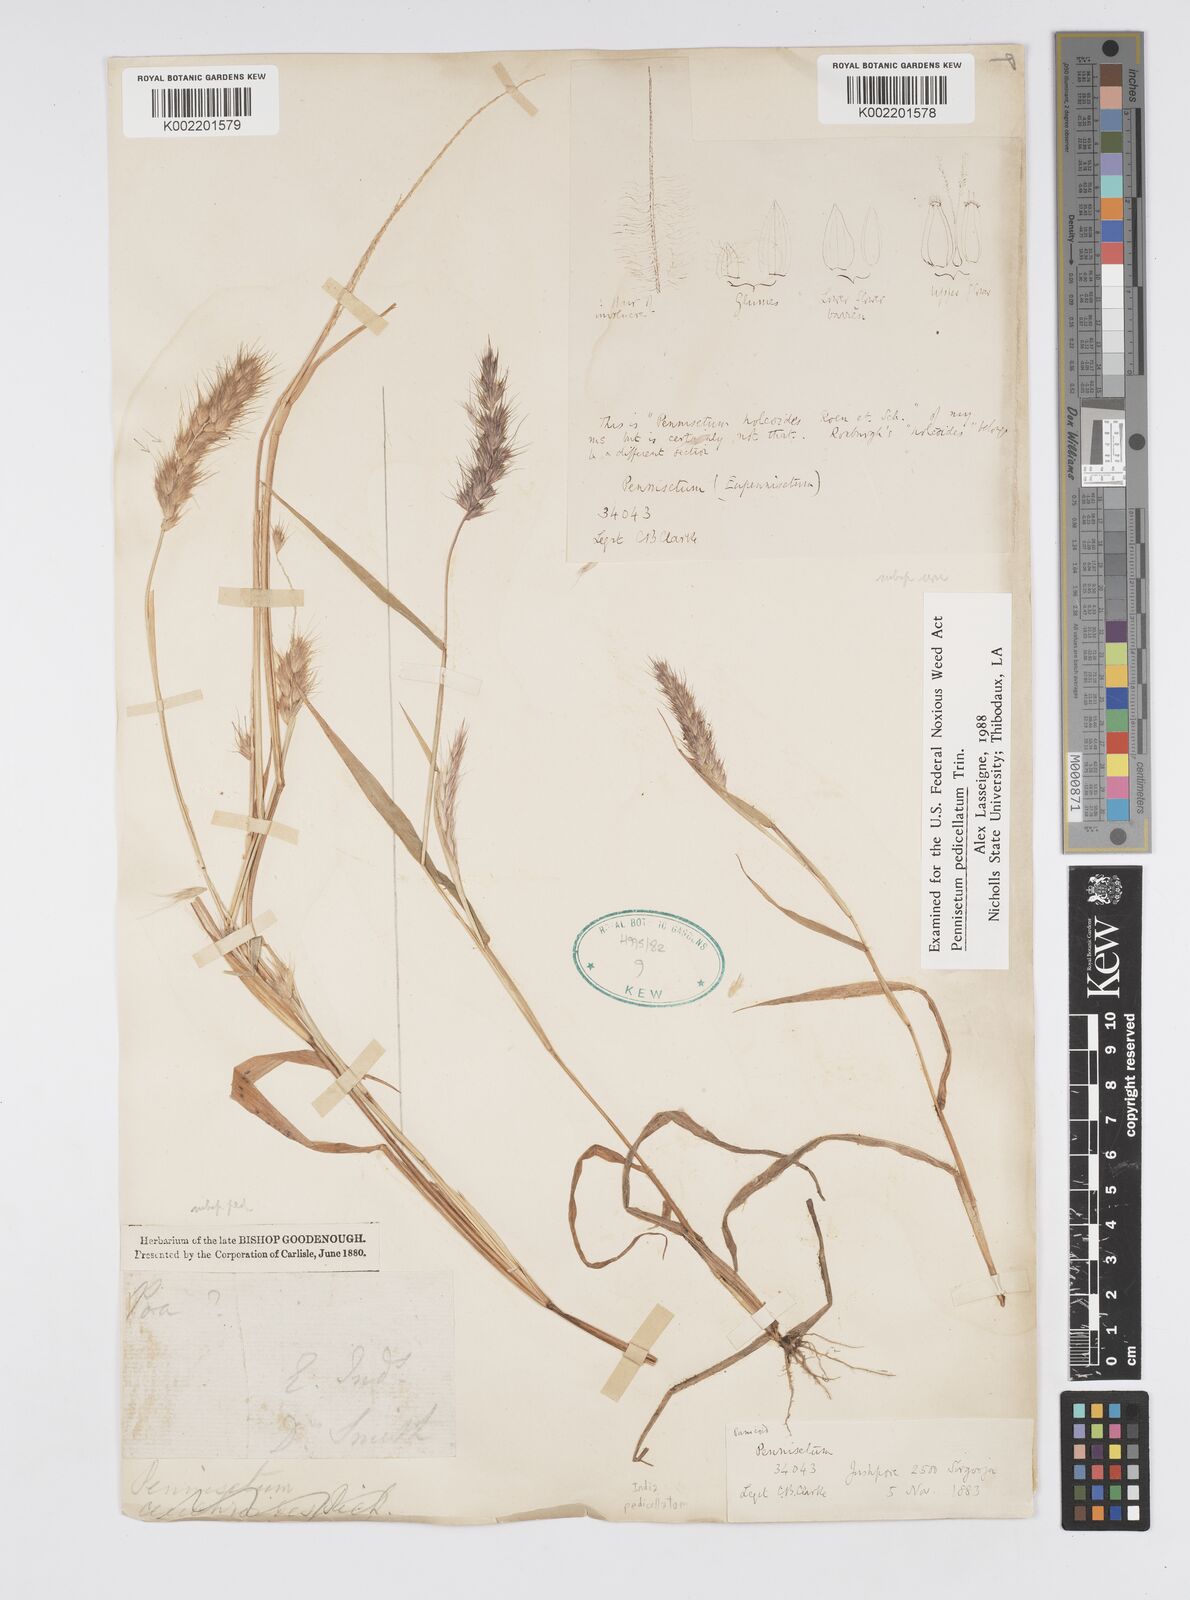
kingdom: Plantae
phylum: Tracheophyta
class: Liliopsida
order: Poales
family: Poaceae
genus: Cenchrus
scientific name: Cenchrus pedicellatus
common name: Hairy fountain grass
